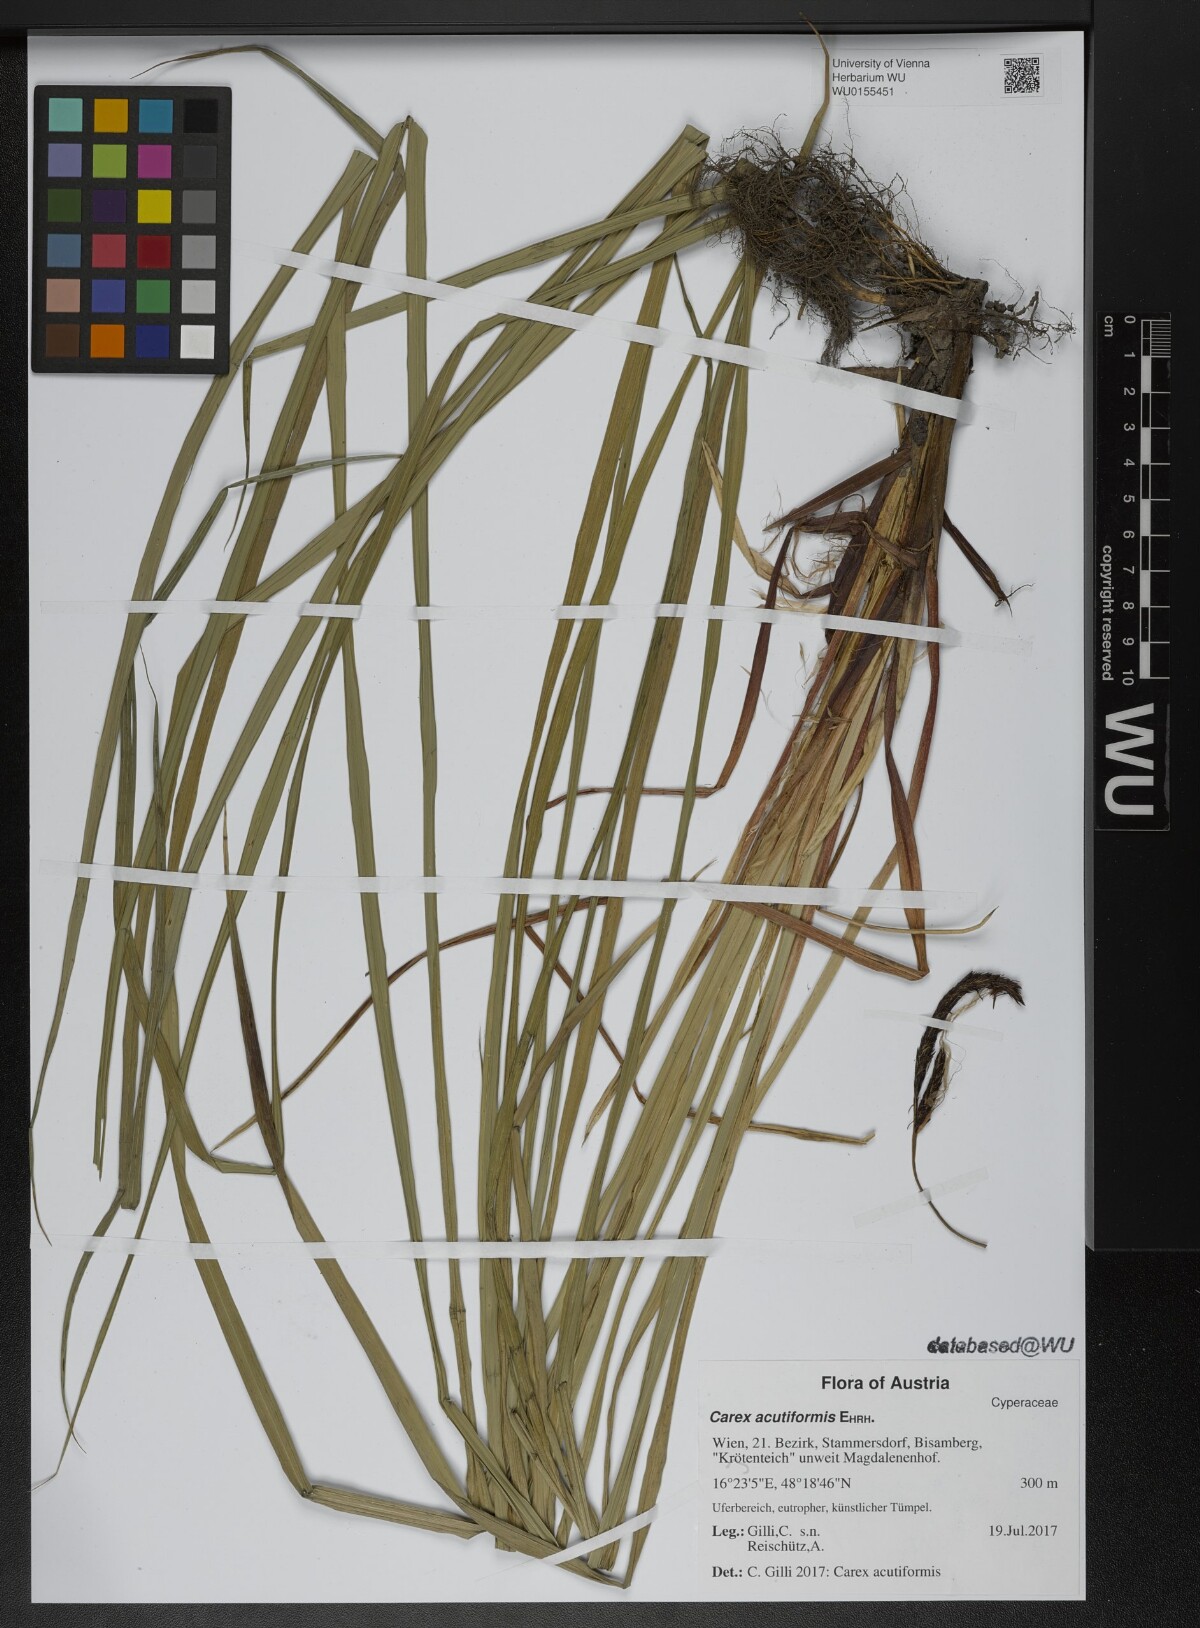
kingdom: Plantae
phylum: Tracheophyta
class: Liliopsida
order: Poales
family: Cyperaceae
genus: Carex
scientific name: Carex acutiformis
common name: Lesser pond-sedge
